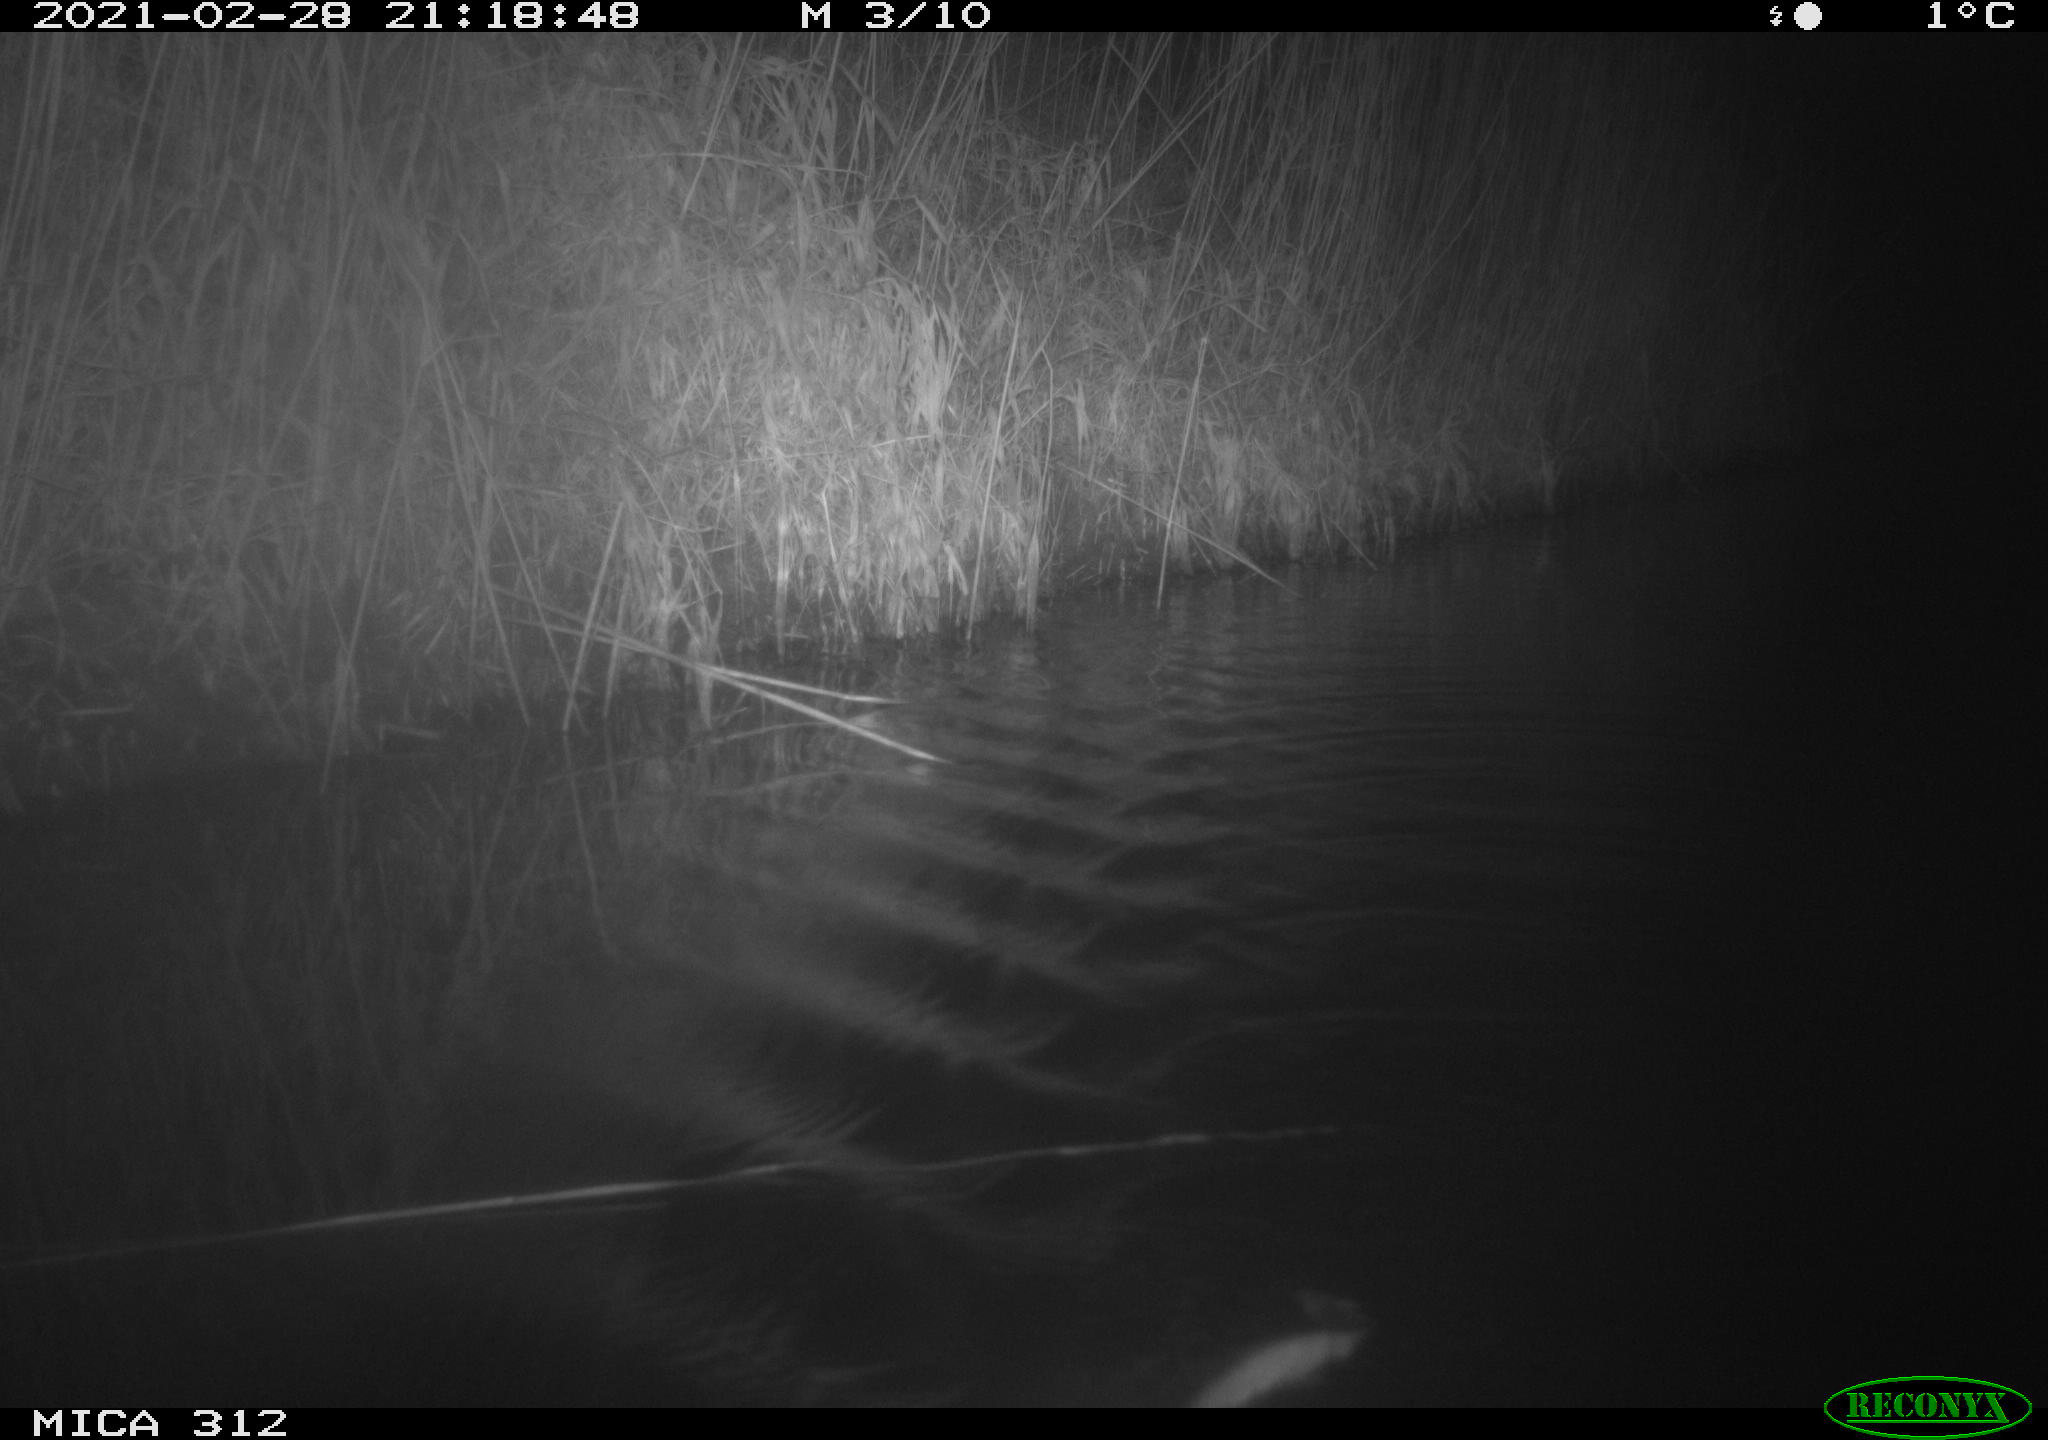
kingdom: Animalia
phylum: Chordata
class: Mammalia
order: Rodentia
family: Cricetidae
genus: Ondatra
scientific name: Ondatra zibethicus
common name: Muskrat
